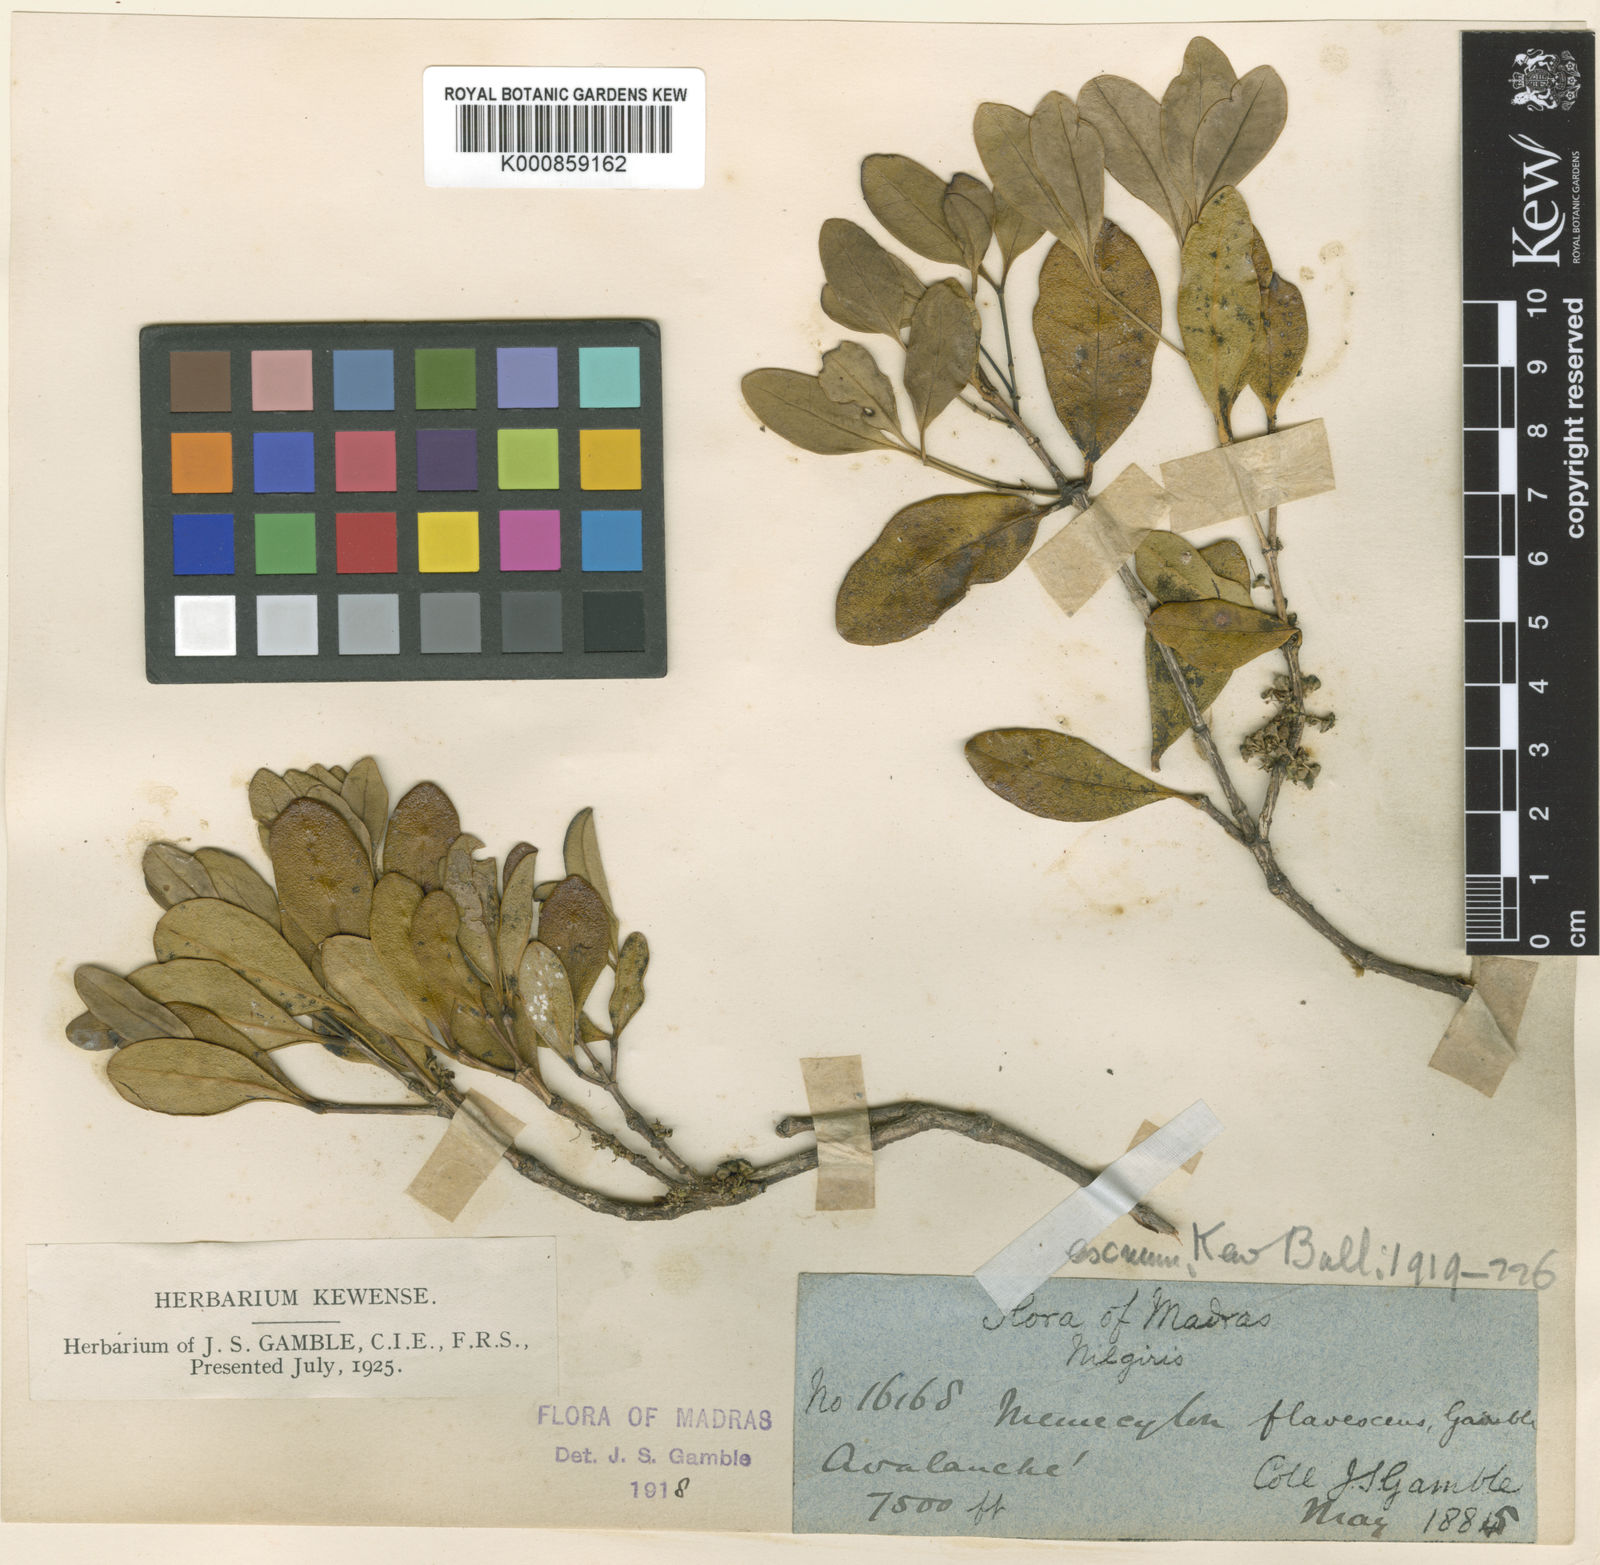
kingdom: Plantae
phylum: Tracheophyta
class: Magnoliopsida
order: Myrtales
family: Melastomataceae
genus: Memecylon
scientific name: Memecylon flavescens
